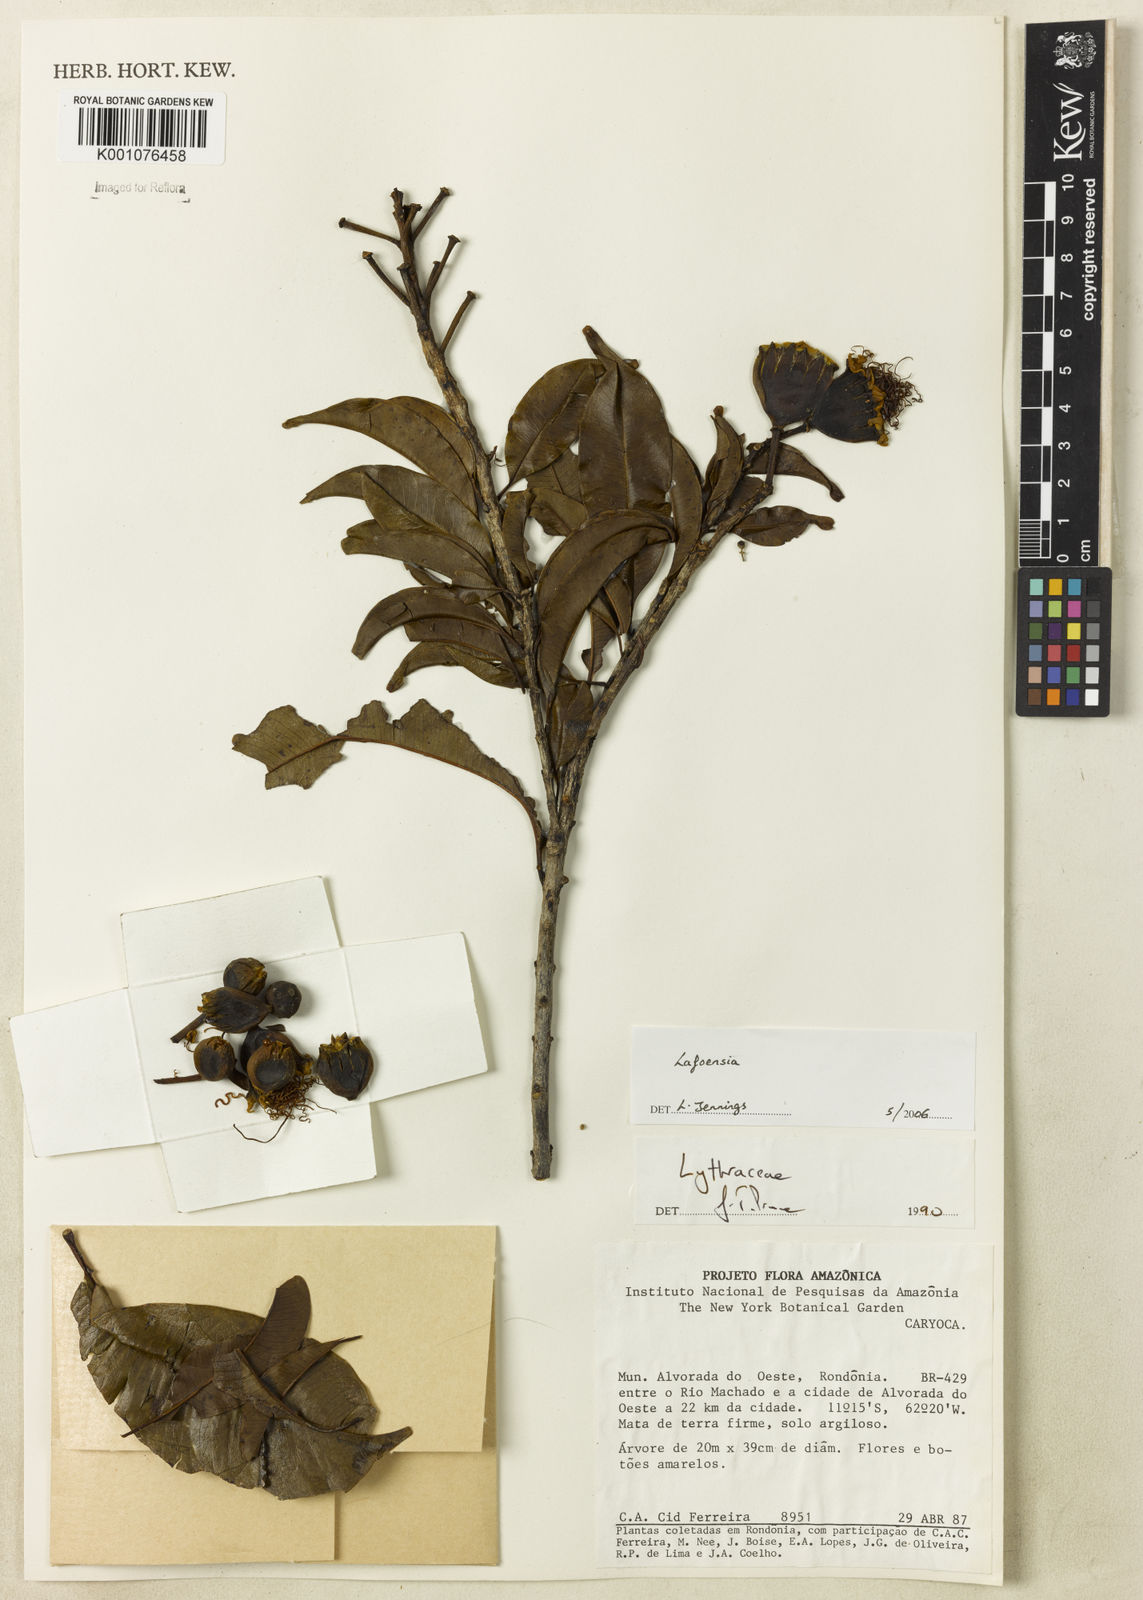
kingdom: Plantae
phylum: Tracheophyta
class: Magnoliopsida
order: Myrtales
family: Lythraceae
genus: Lafoensia
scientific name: Lafoensia
